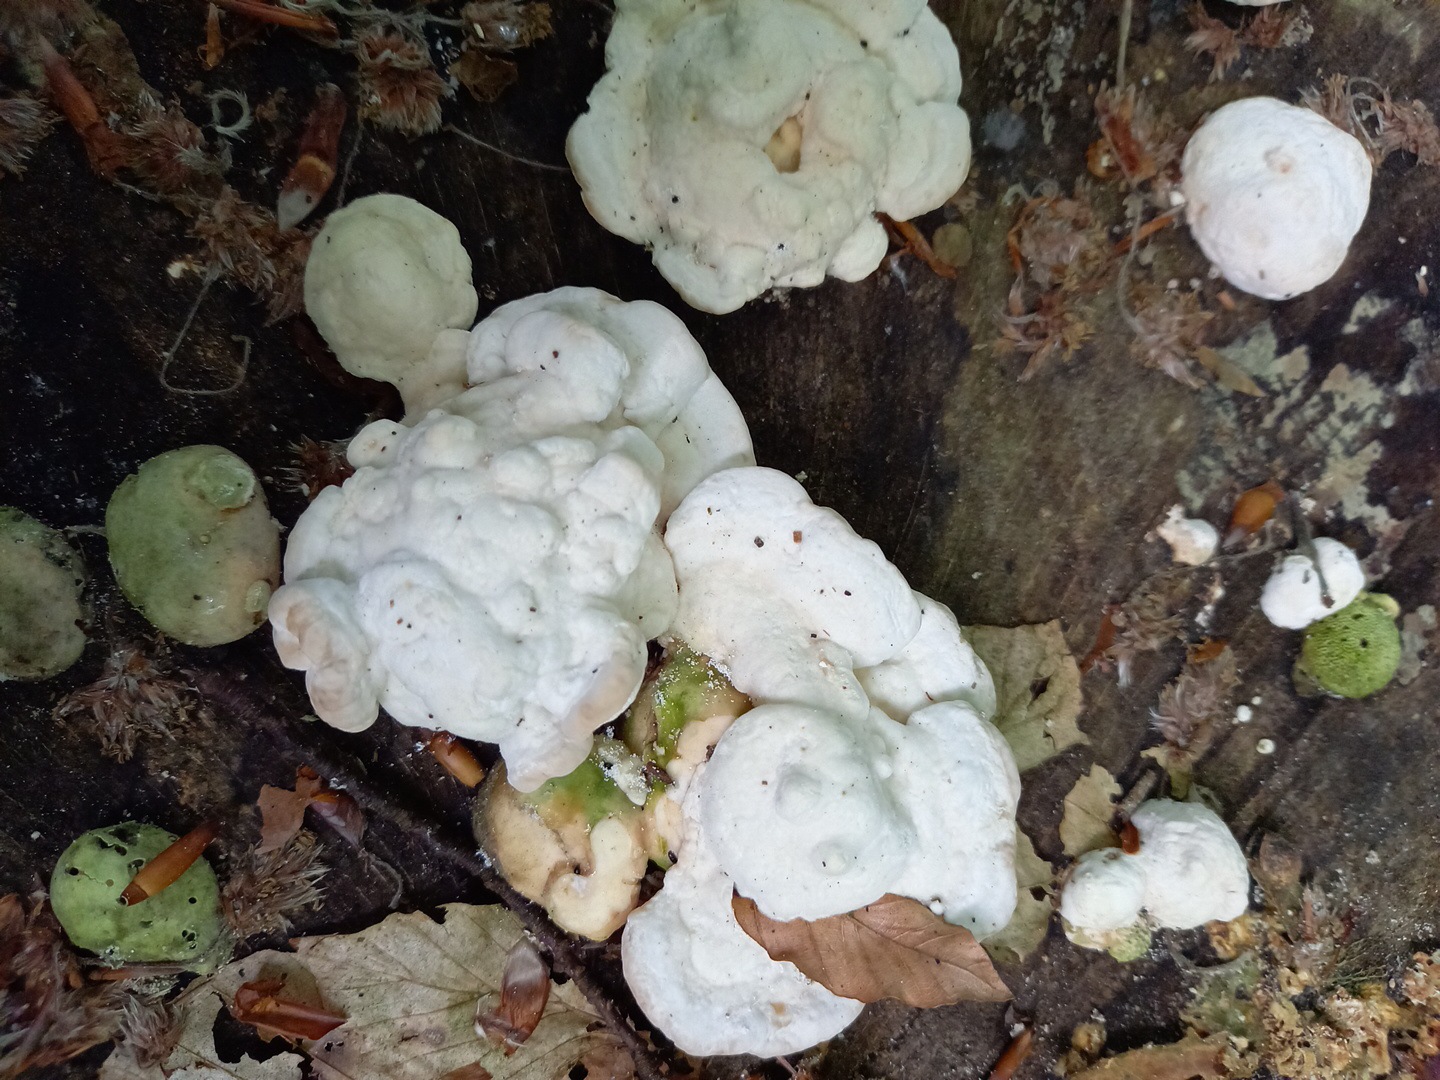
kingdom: Fungi
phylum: Basidiomycota
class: Agaricomycetes
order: Polyporales
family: Polyporaceae
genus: Trametes
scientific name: Trametes gibbosa
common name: puklet læderporesvamp
